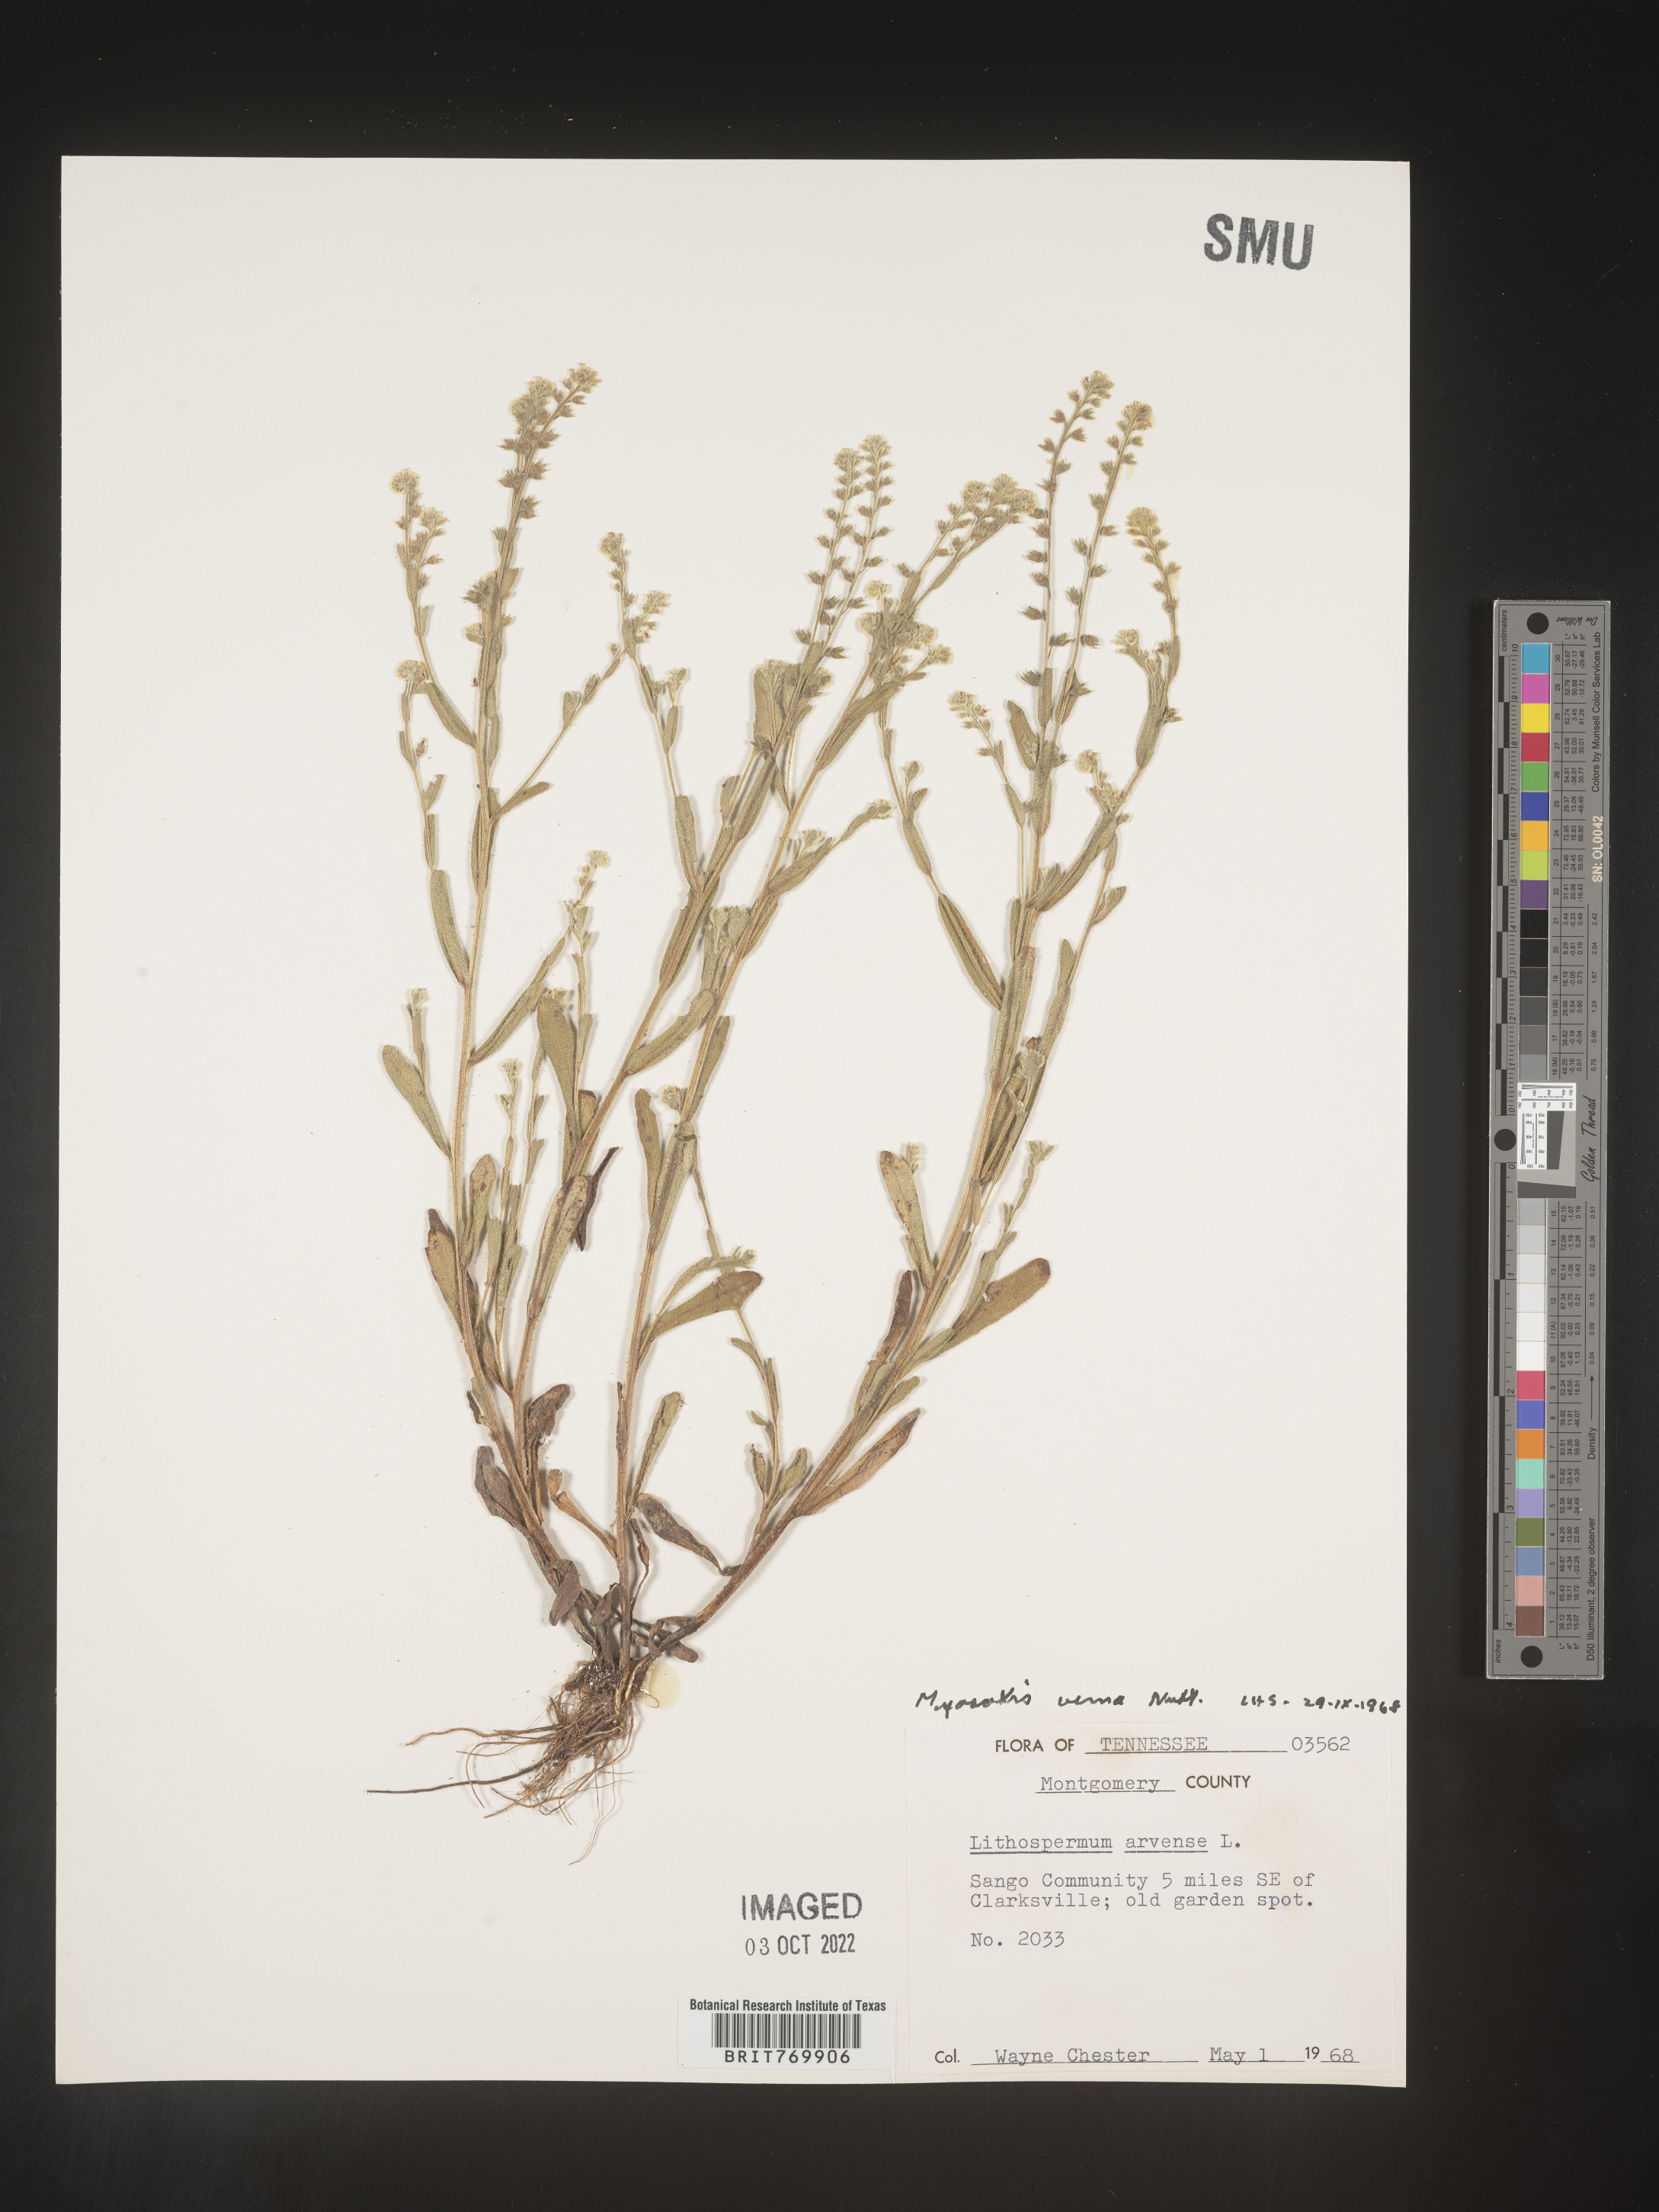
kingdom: Plantae
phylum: Tracheophyta
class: Magnoliopsida
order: Boraginales
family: Boraginaceae
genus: Myosotis
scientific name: Myosotis verna
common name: Early forget-me-not
